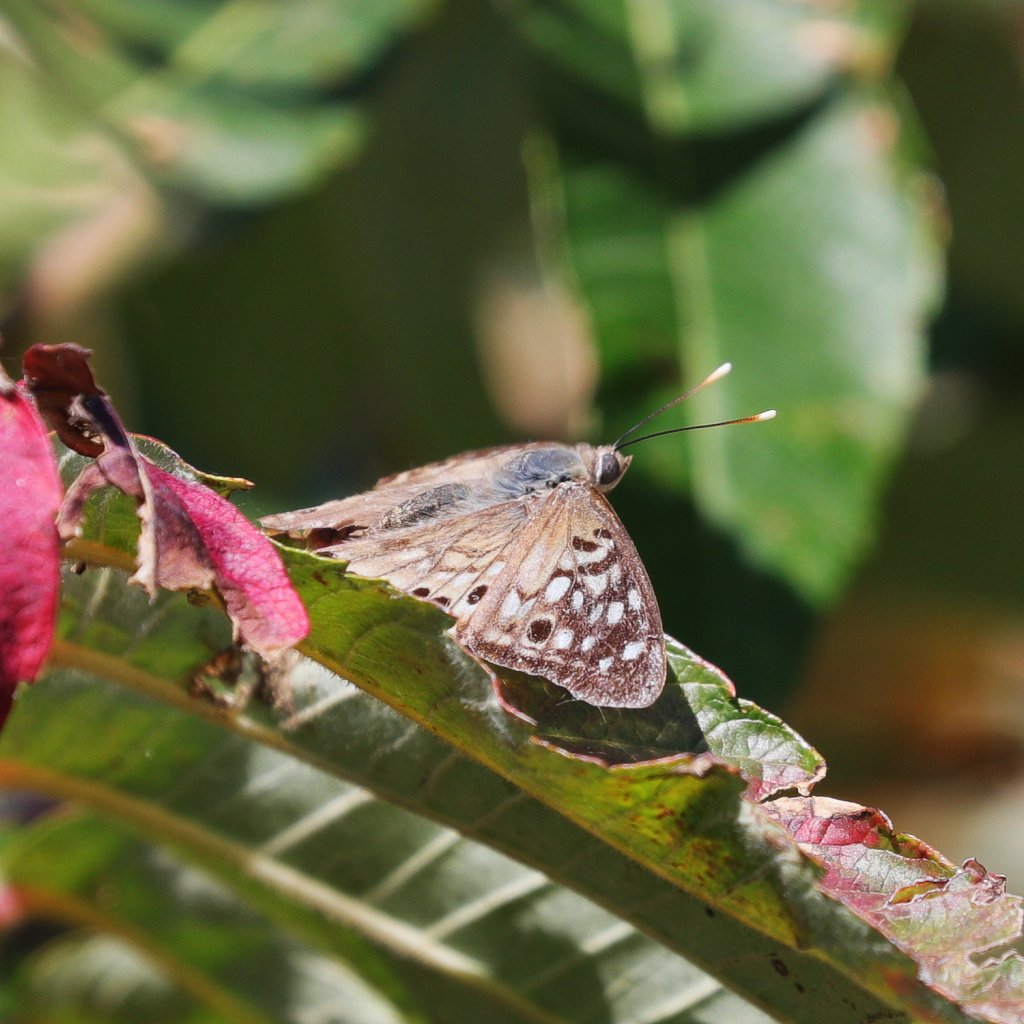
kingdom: Animalia
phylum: Arthropoda
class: Insecta
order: Lepidoptera
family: Nymphalidae
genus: Asterocampa
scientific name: Asterocampa celtis
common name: Hackberry Emperor
